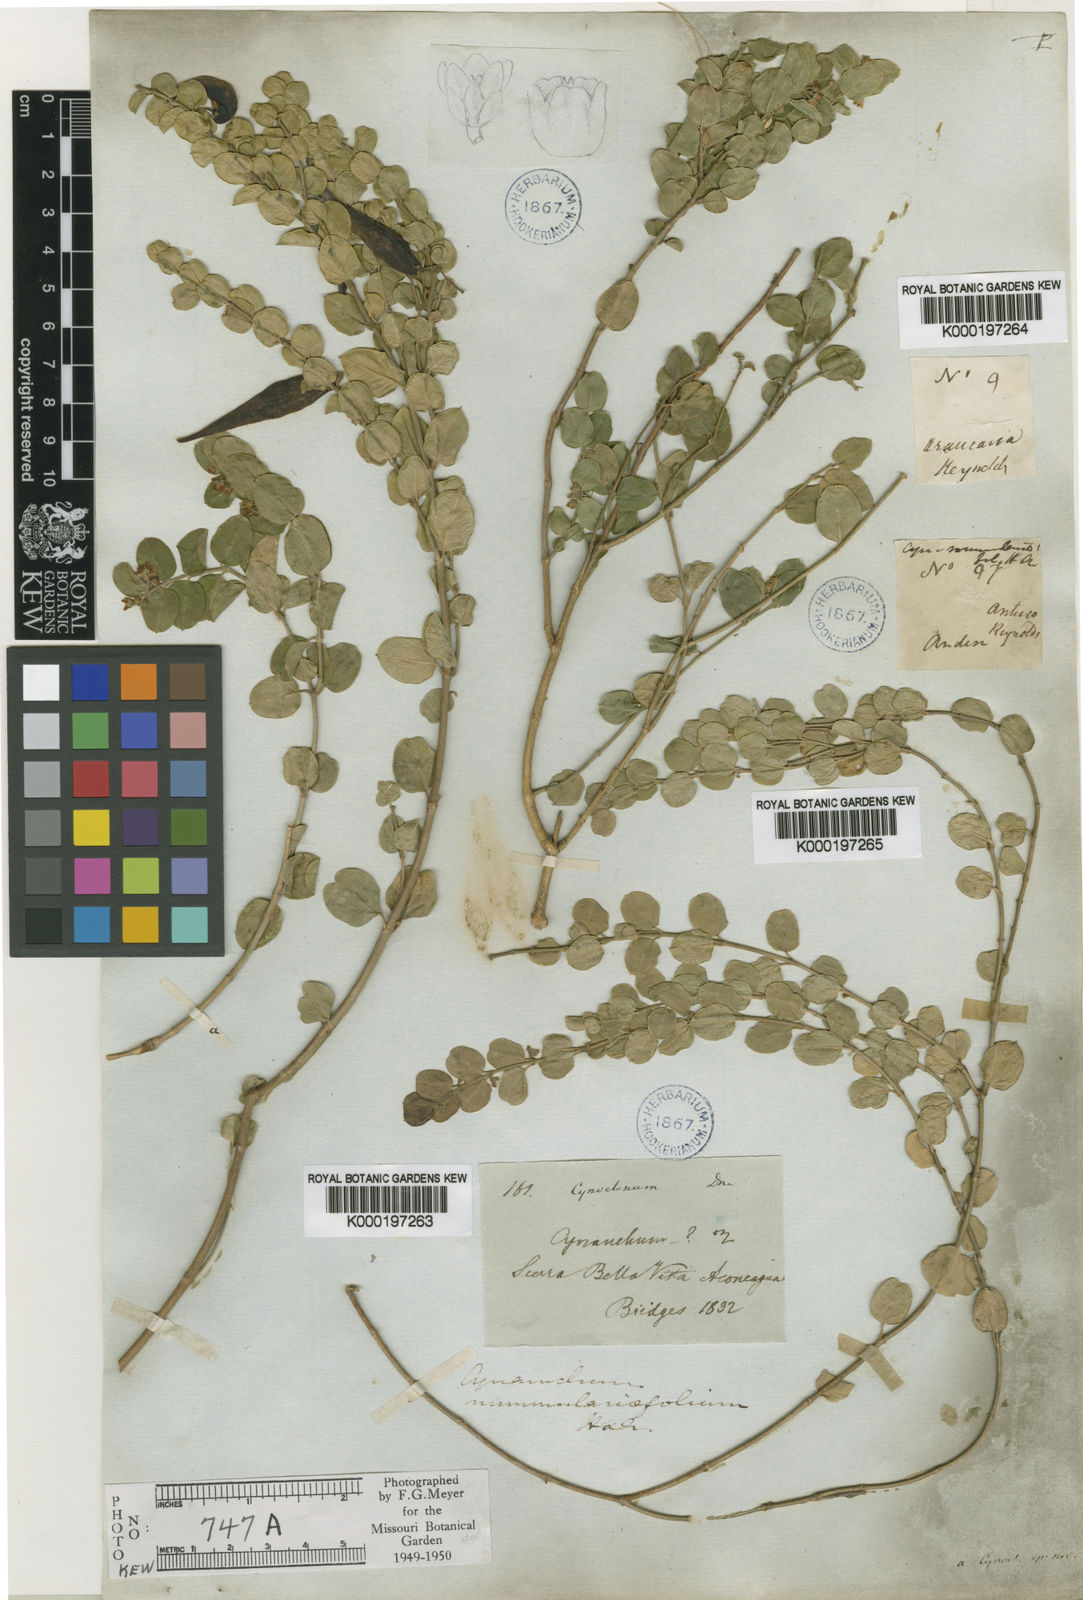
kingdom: Plantae
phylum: Tracheophyta
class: Magnoliopsida
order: Gentianales
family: Apocynaceae
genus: Diplolepis
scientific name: Diplolepis nummulariifolia
